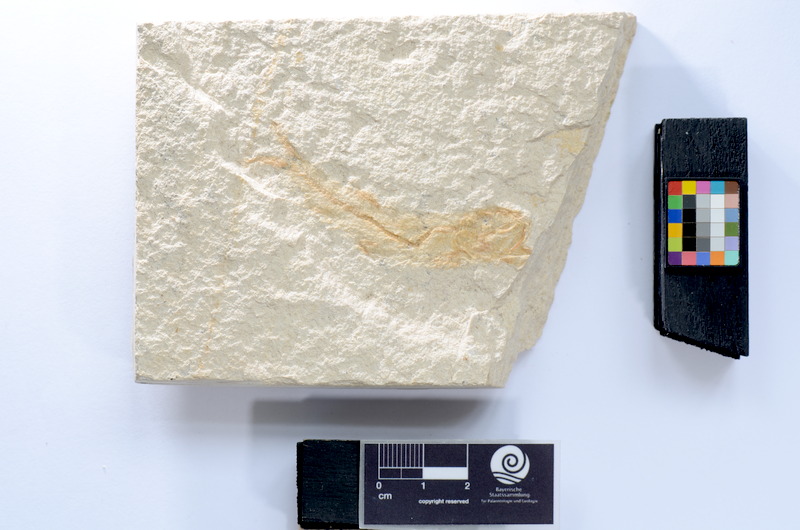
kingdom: Animalia
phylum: Chordata
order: Elopiformes
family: Anaethalionidae
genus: Anaethalion
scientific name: Anaethalion
